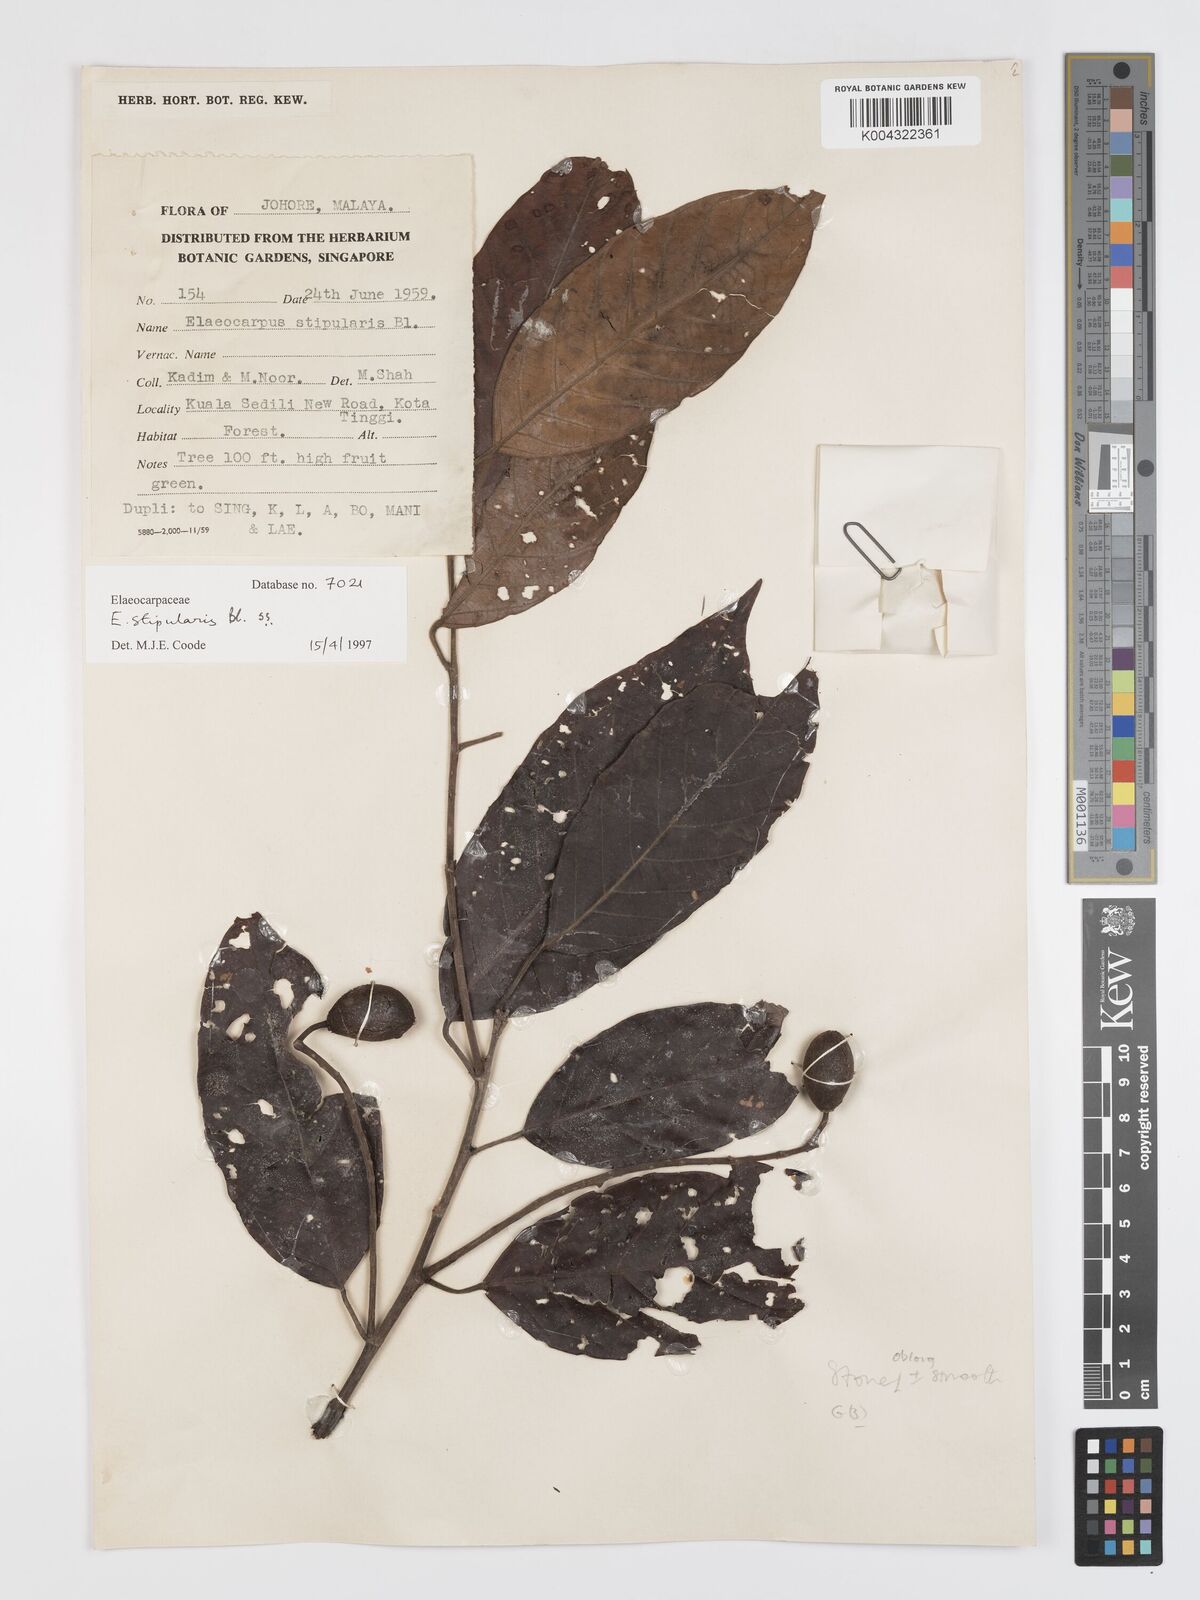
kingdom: Plantae
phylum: Tracheophyta
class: Magnoliopsida
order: Oxalidales
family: Elaeocarpaceae
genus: Elaeocarpus
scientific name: Elaeocarpus stipularis
